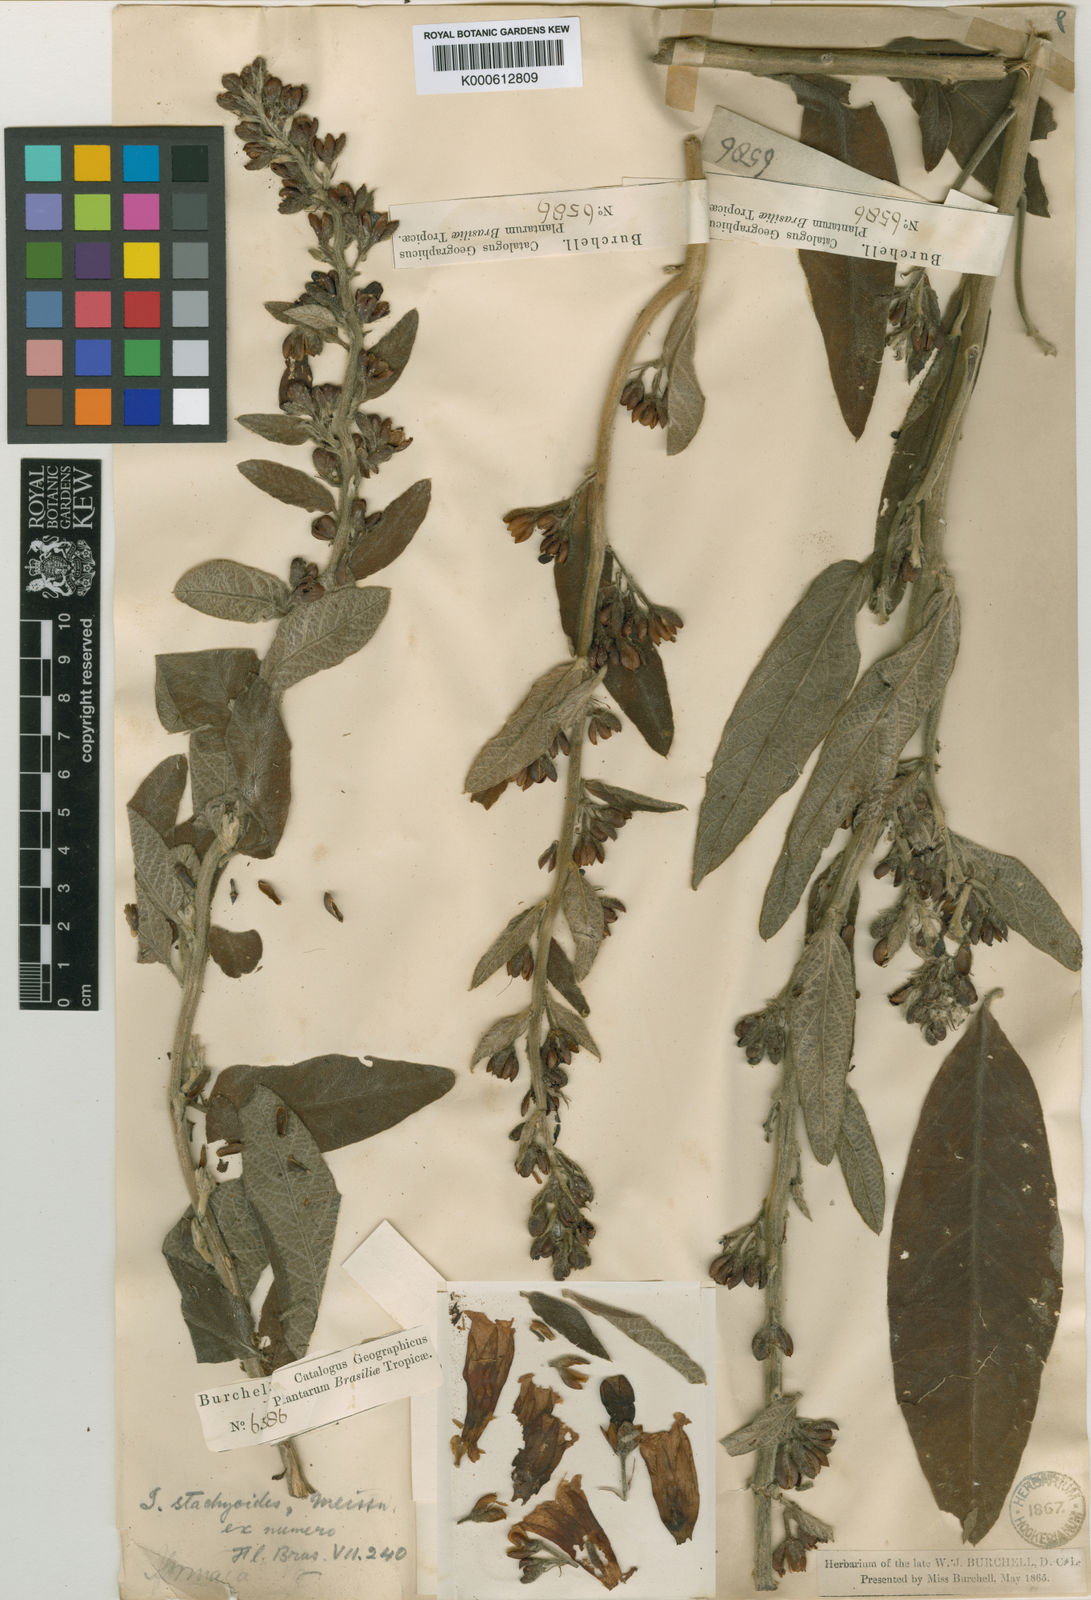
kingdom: Plantae
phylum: Tracheophyta
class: Magnoliopsida
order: Solanales
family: Convolvulaceae
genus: Ipomoea
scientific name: Ipomoea argentea
